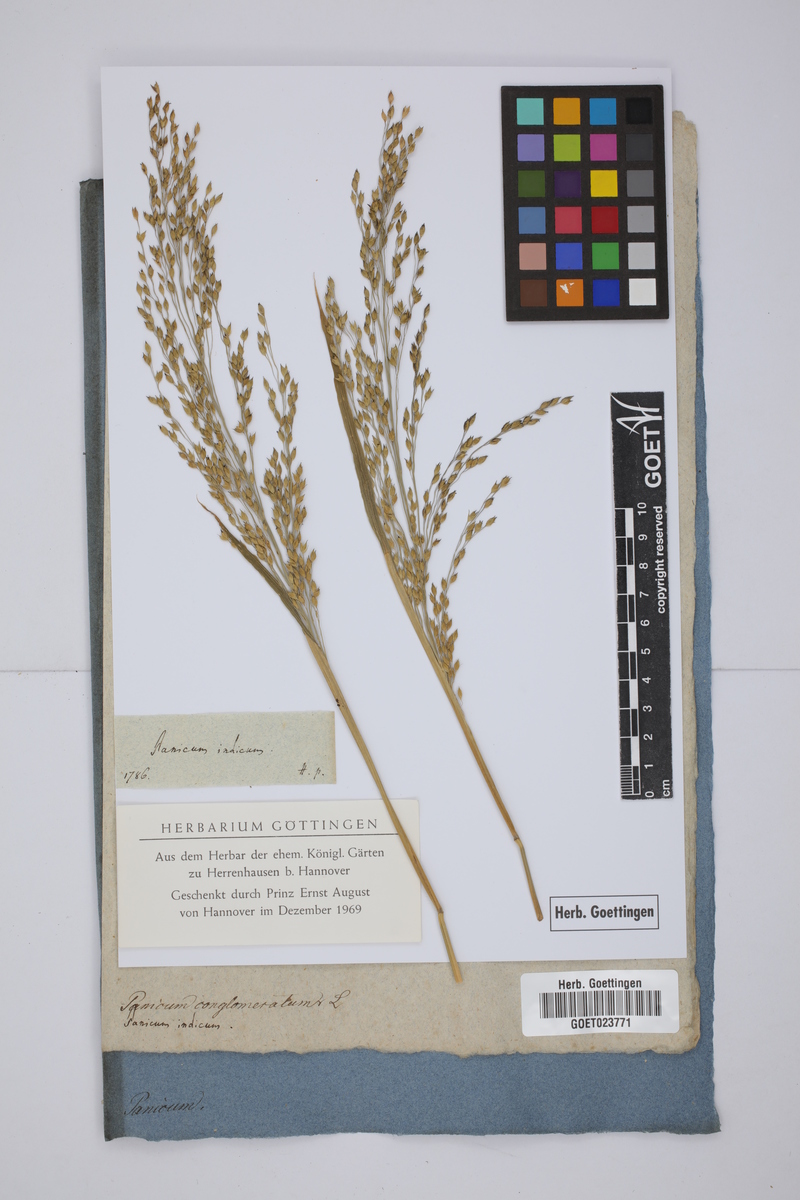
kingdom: Plantae
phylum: Tracheophyta
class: Liliopsida
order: Poales
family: Poaceae
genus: Sacciolepis
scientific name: Sacciolepis indica
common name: Glenwoodgrass
